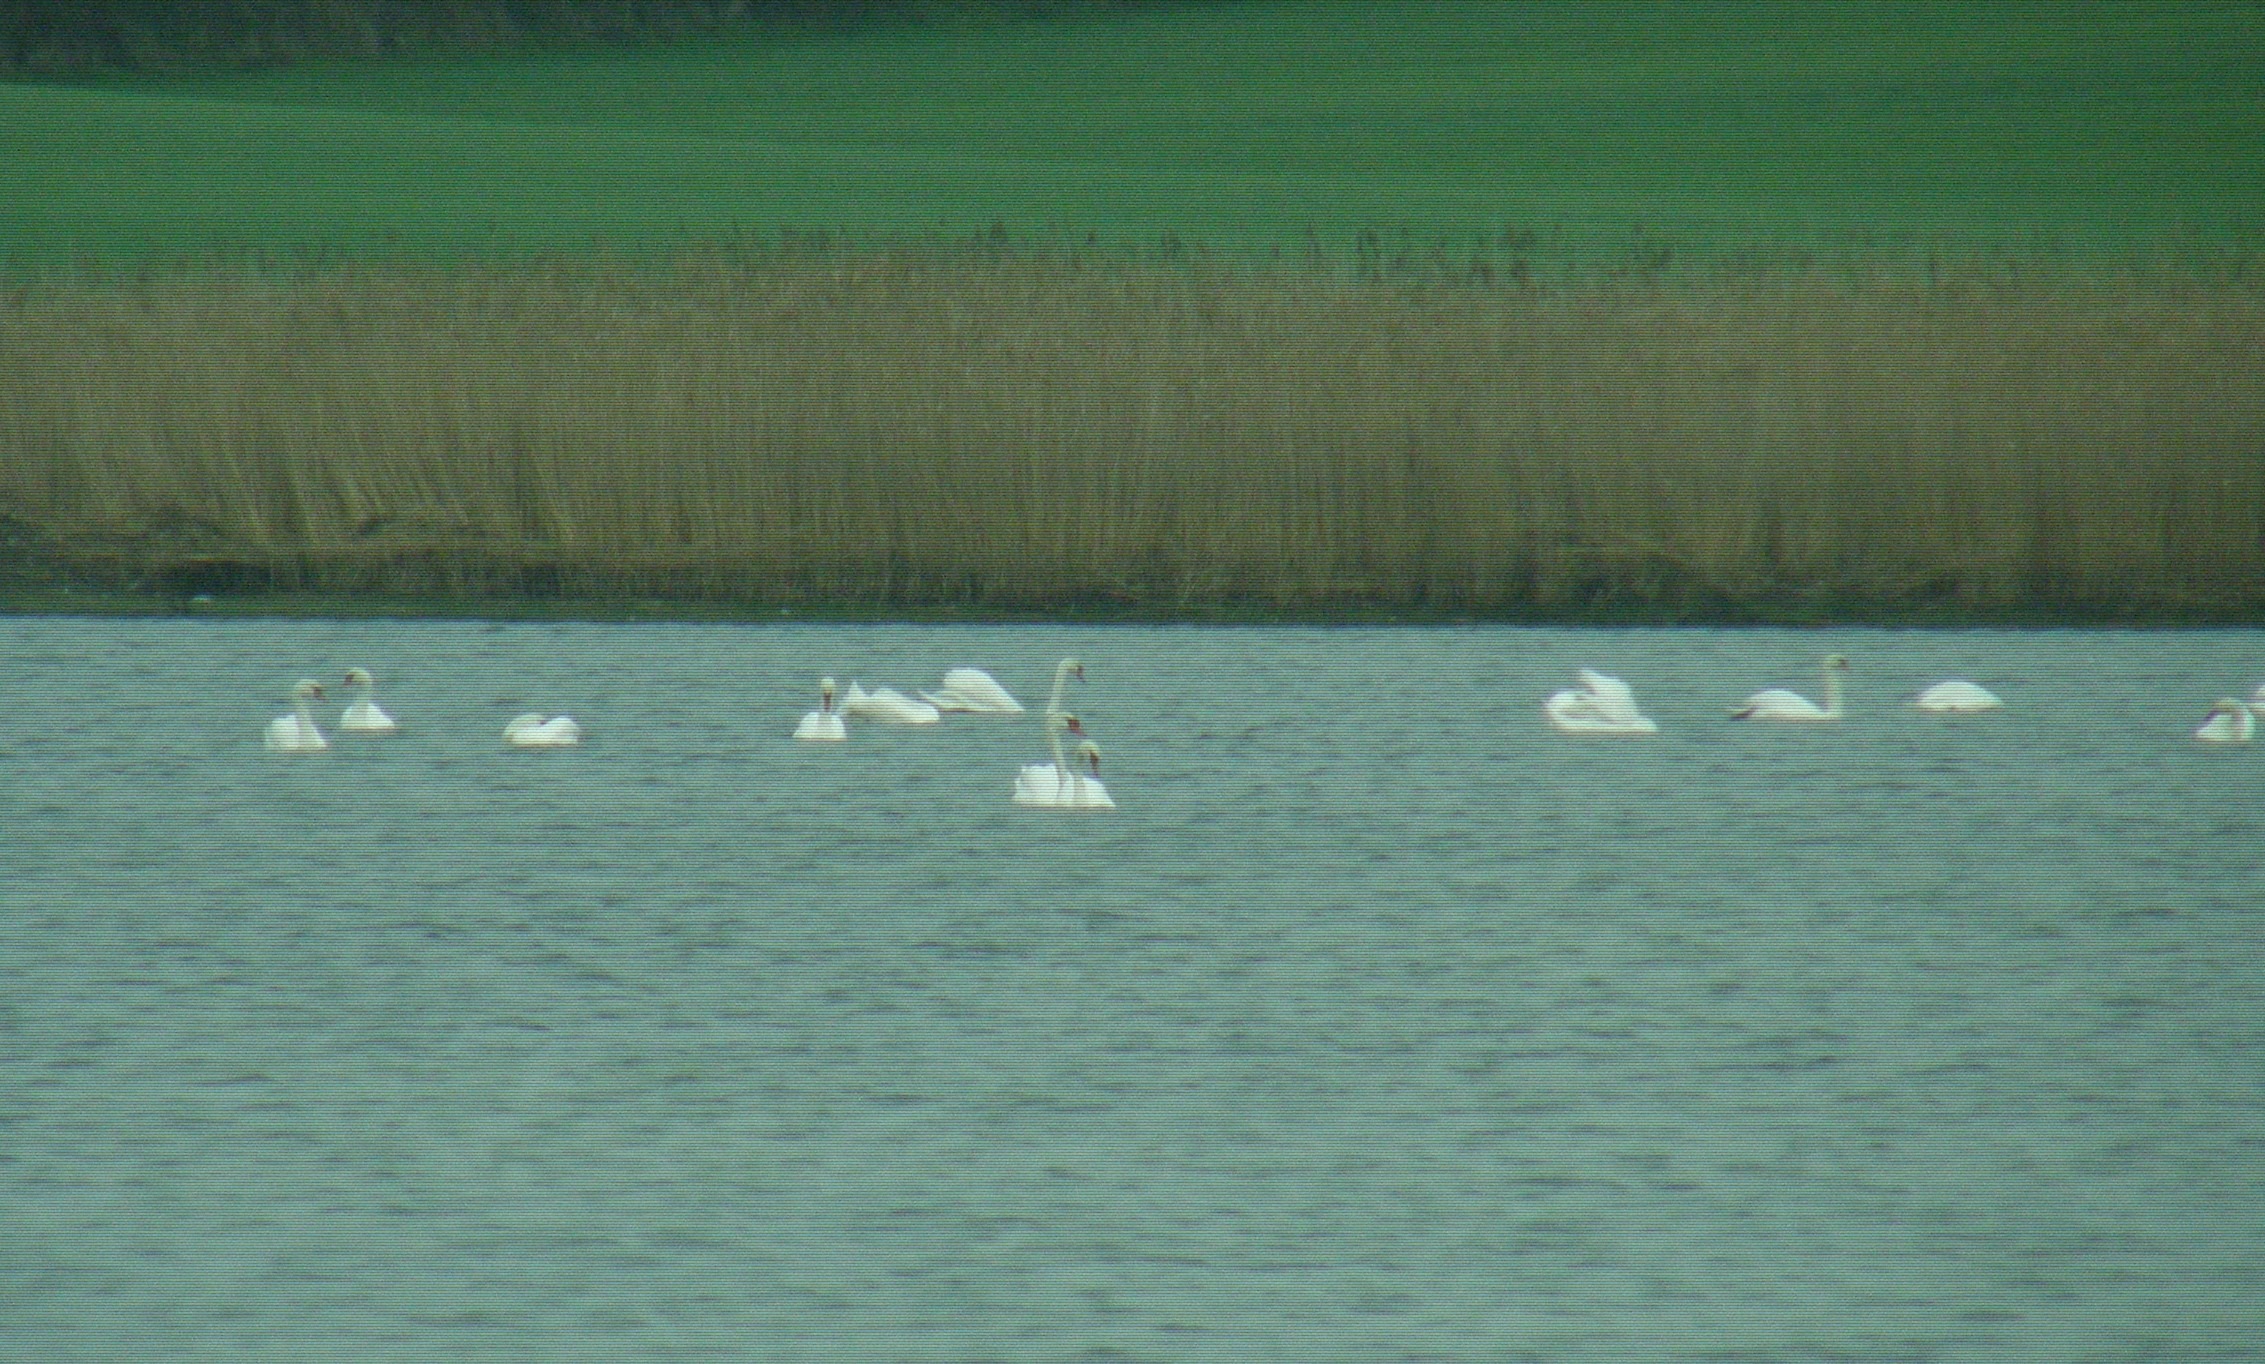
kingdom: Animalia
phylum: Chordata
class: Aves
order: Anseriformes
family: Anatidae
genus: Cygnus
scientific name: Cygnus olor
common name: Knopsvane
